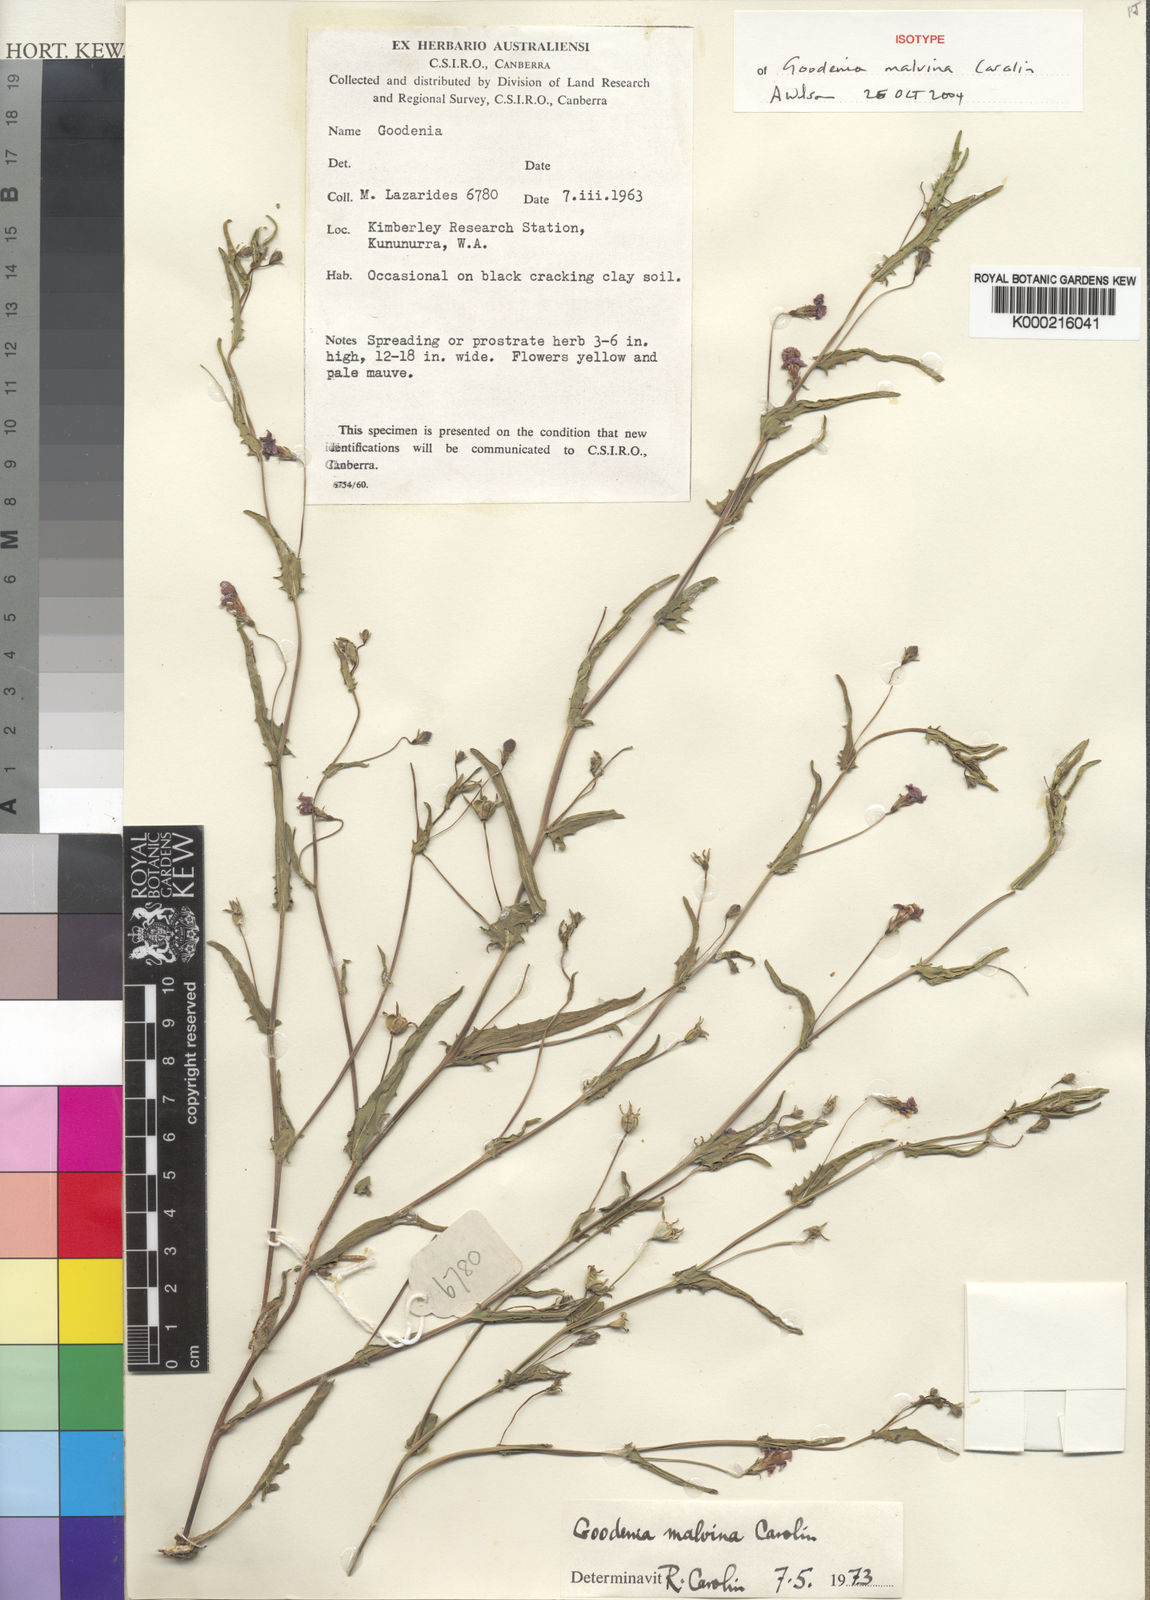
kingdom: Plantae
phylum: Tracheophyta
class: Magnoliopsida
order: Asterales
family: Goodeniaceae
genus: Goodenia
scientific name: Goodenia malvina
